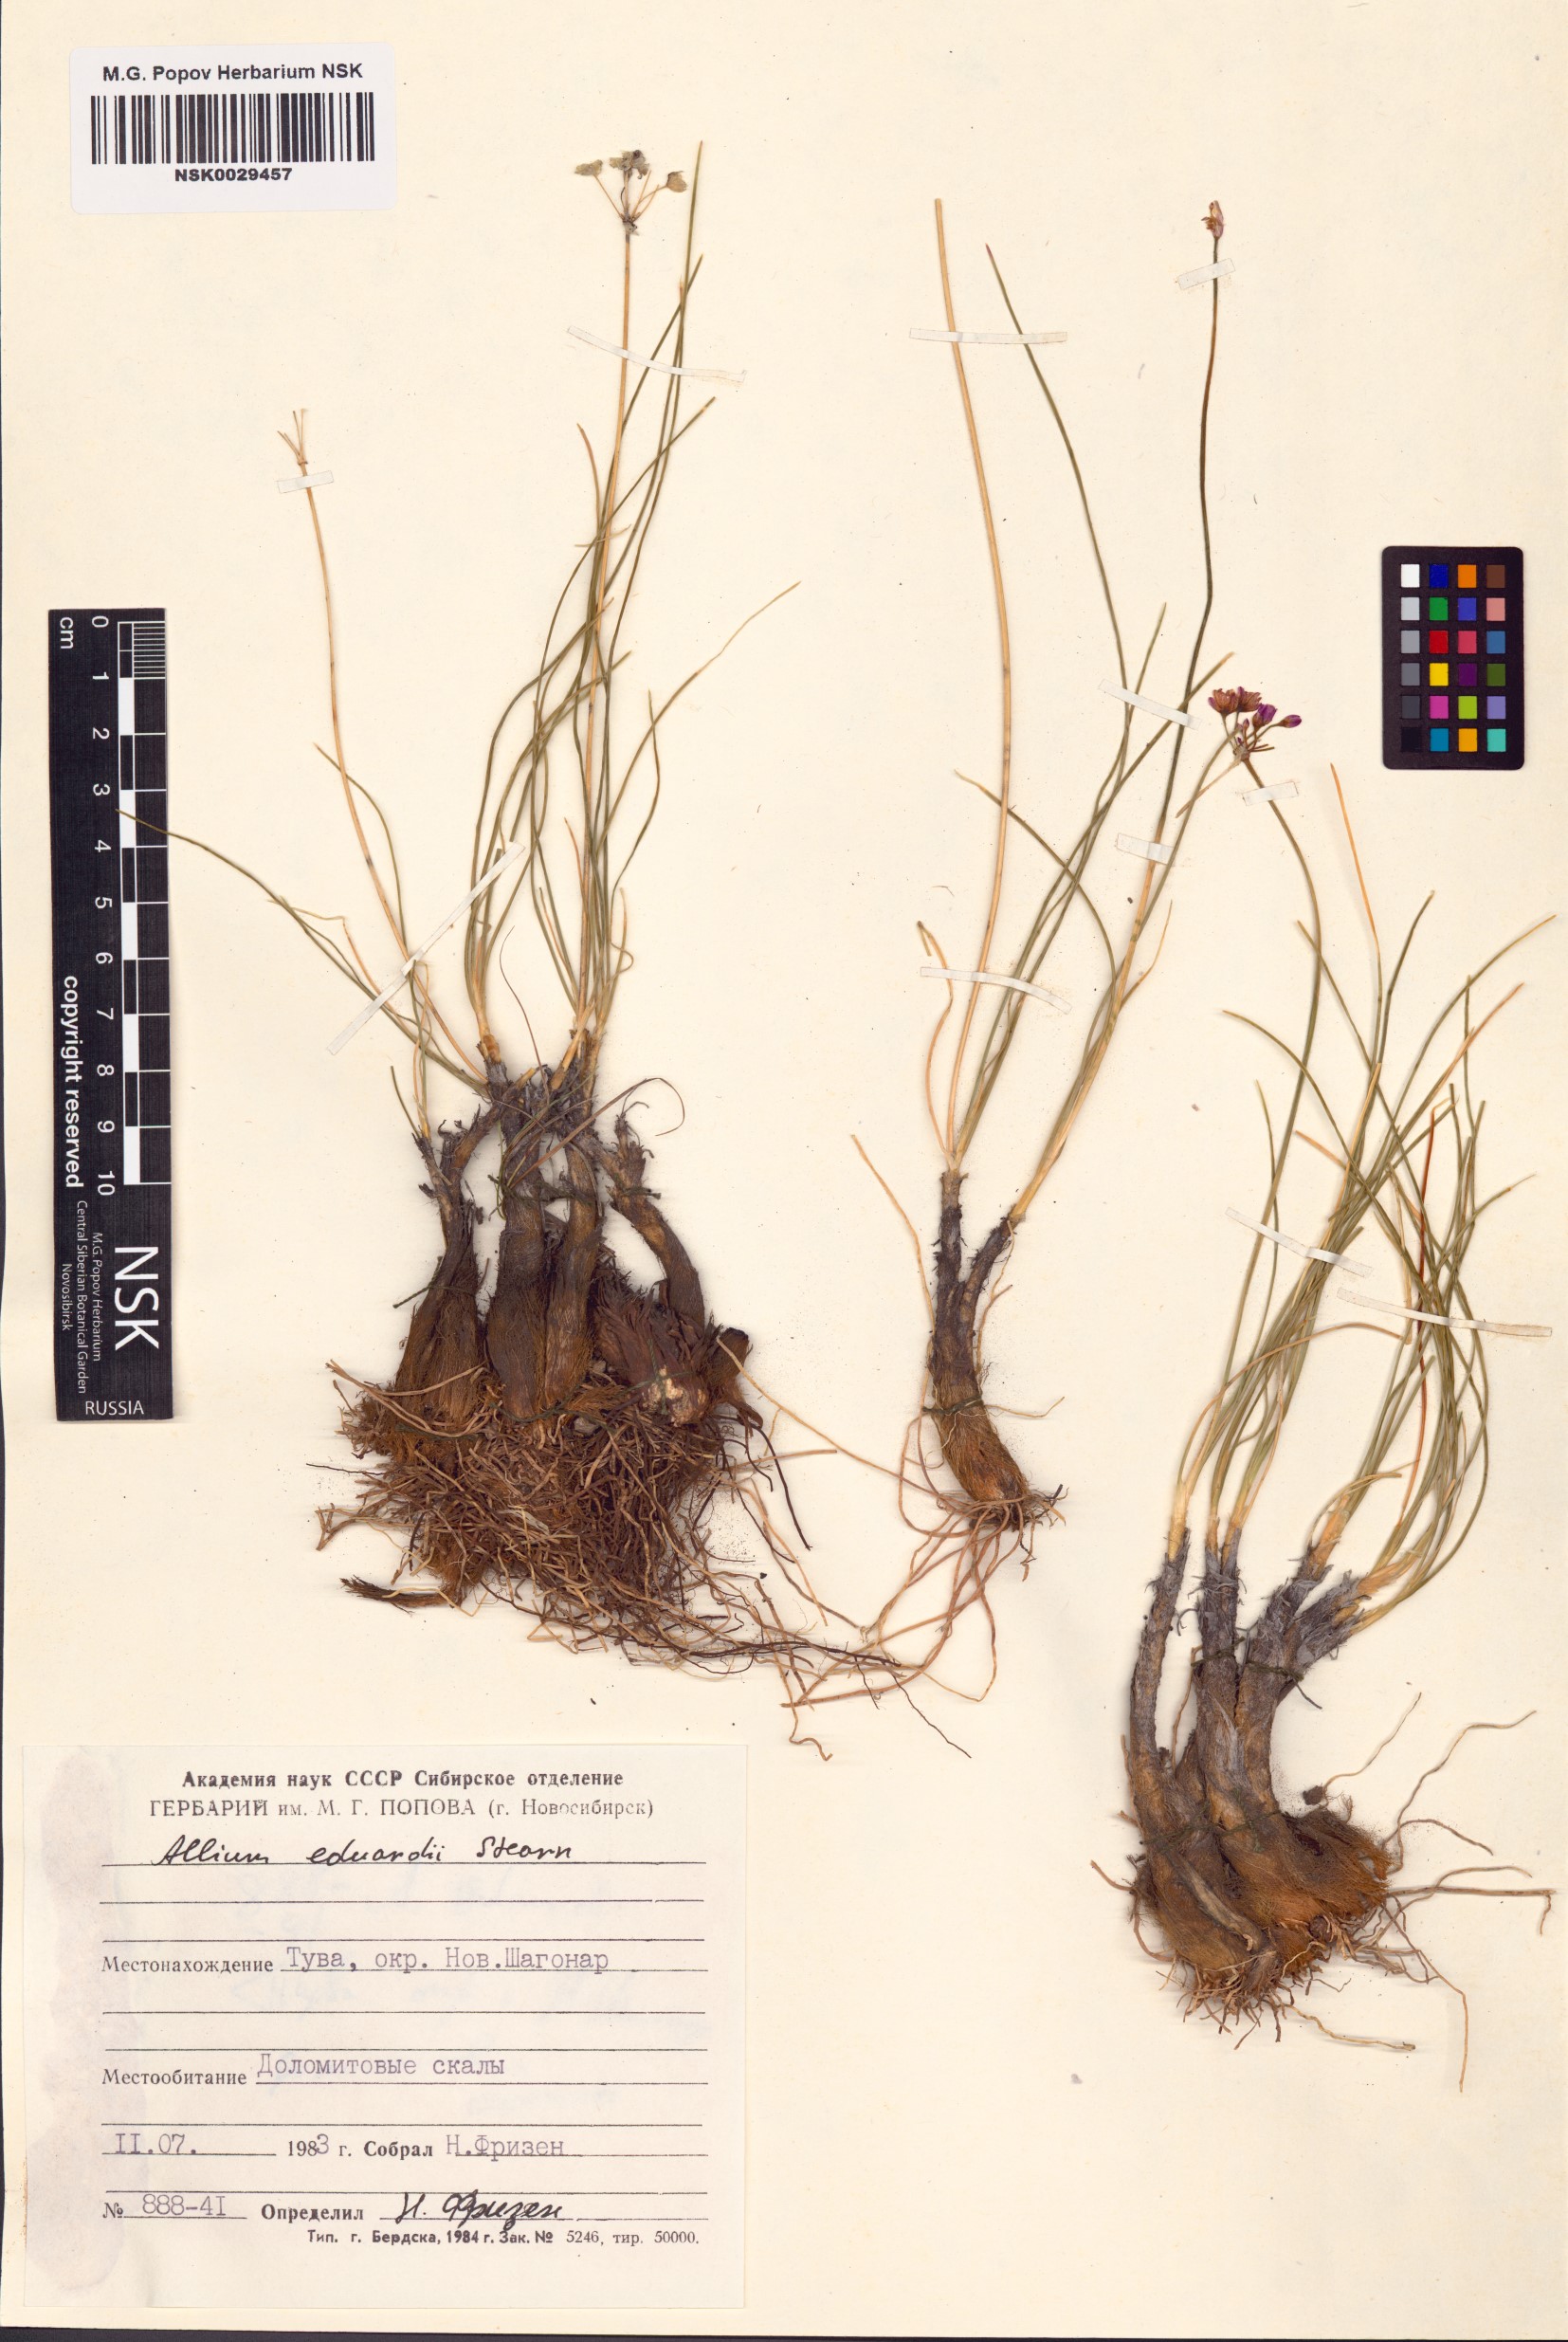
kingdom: Plantae
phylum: Tracheophyta
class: Liliopsida
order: Asparagales
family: Amaryllidaceae
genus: Allium
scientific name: Allium eduardi
